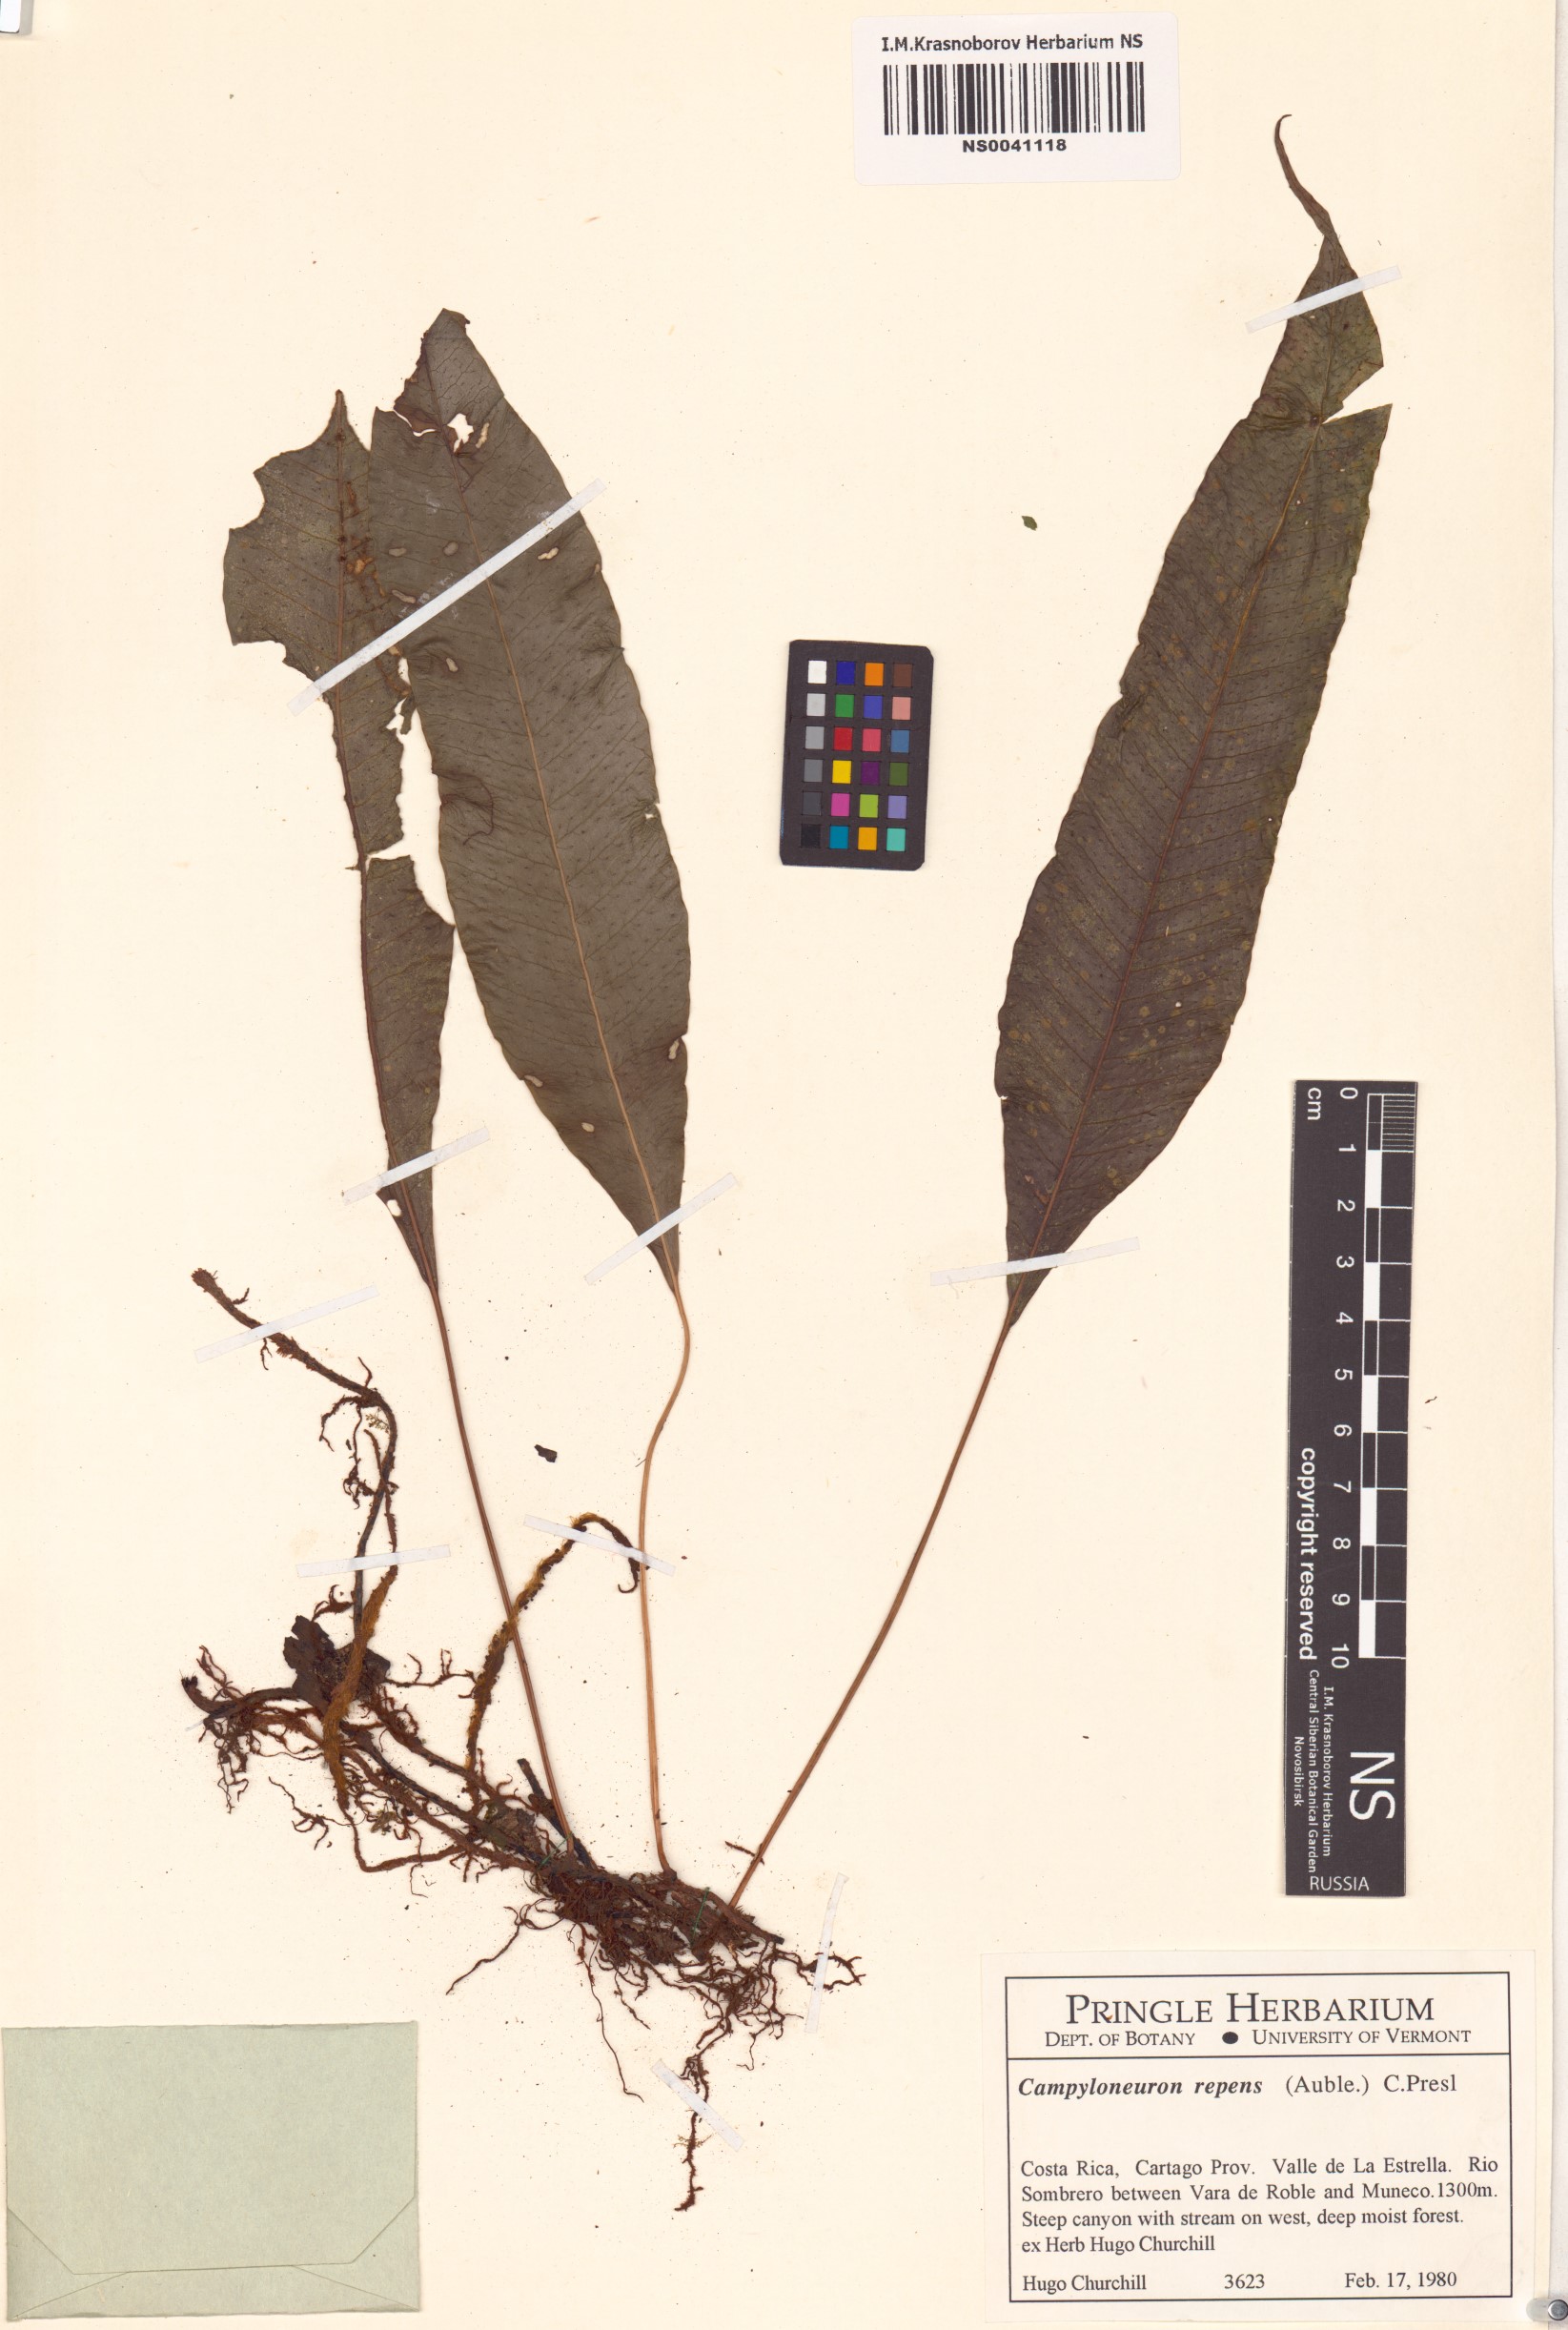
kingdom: Plantae
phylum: Tracheophyta
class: Polypodiopsida
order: Polypodiales
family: Polypodiaceae
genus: Campyloneurum
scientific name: Campyloneurum repens
